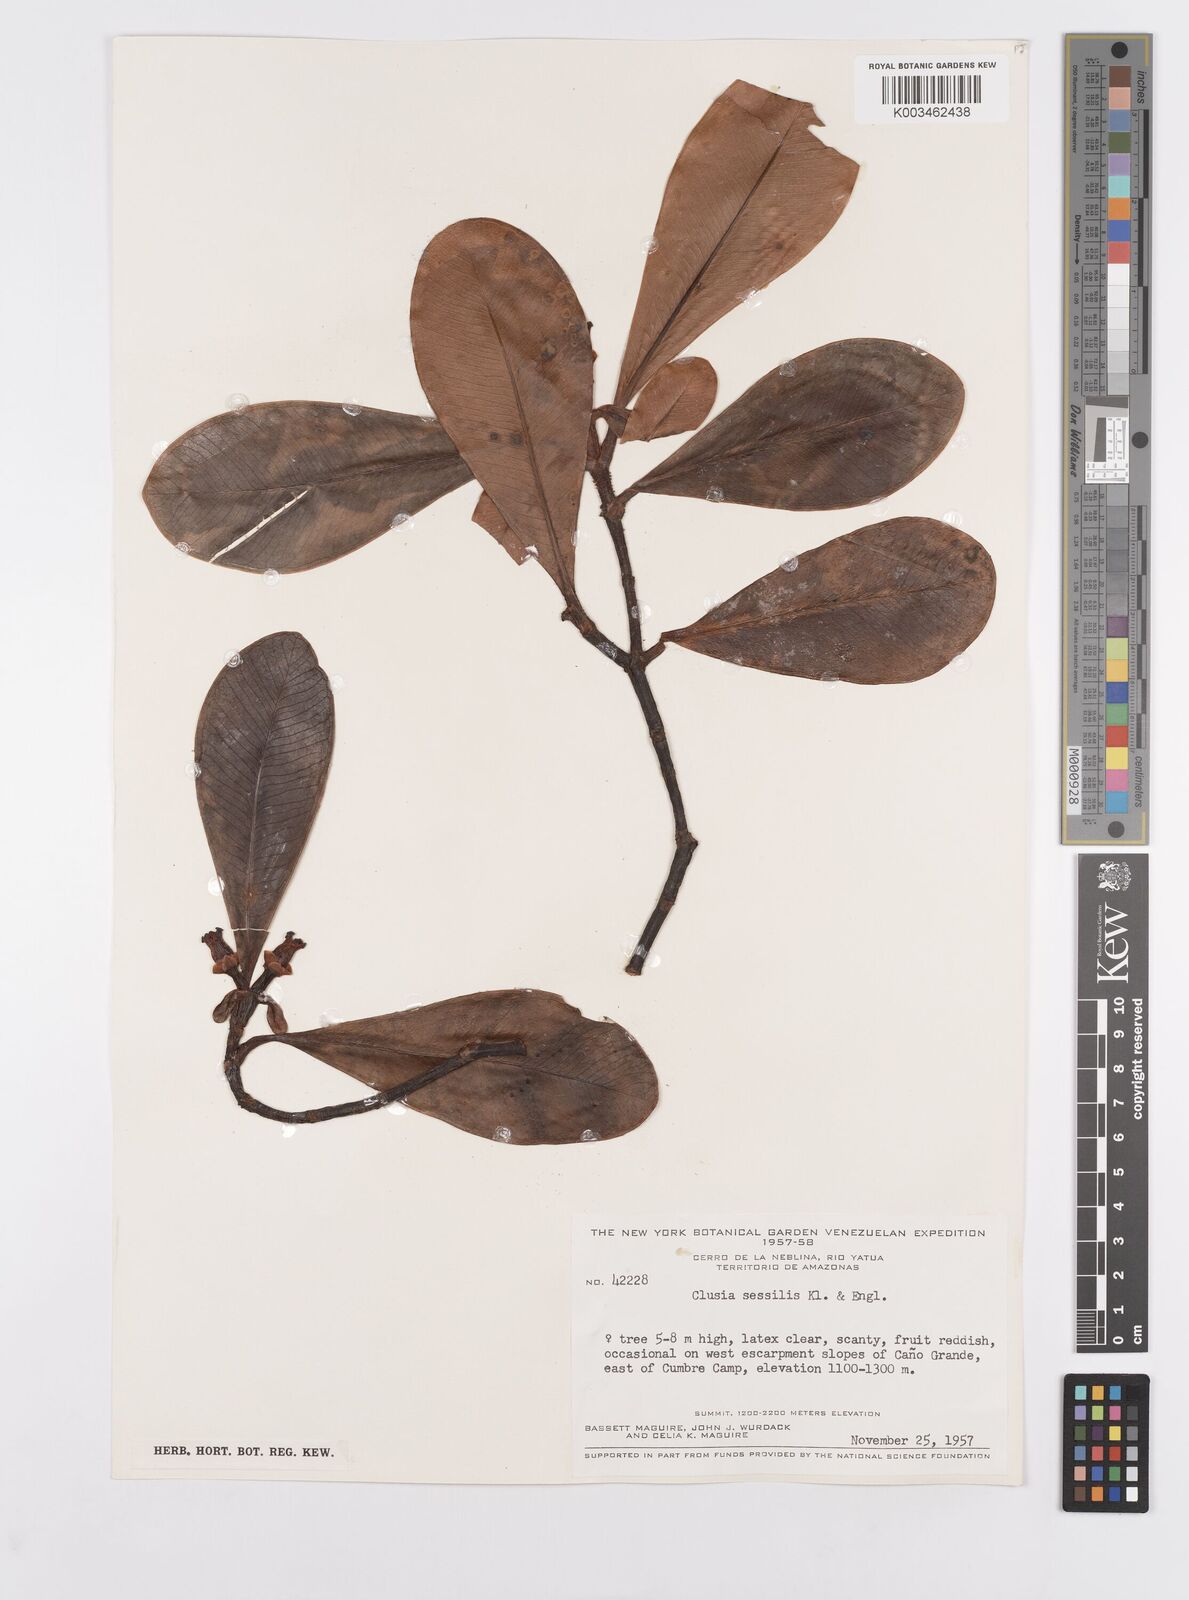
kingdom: Plantae
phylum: Tracheophyta
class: Magnoliopsida
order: Malpighiales
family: Clusiaceae
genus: Garcinia
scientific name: Garcinia sessilis
